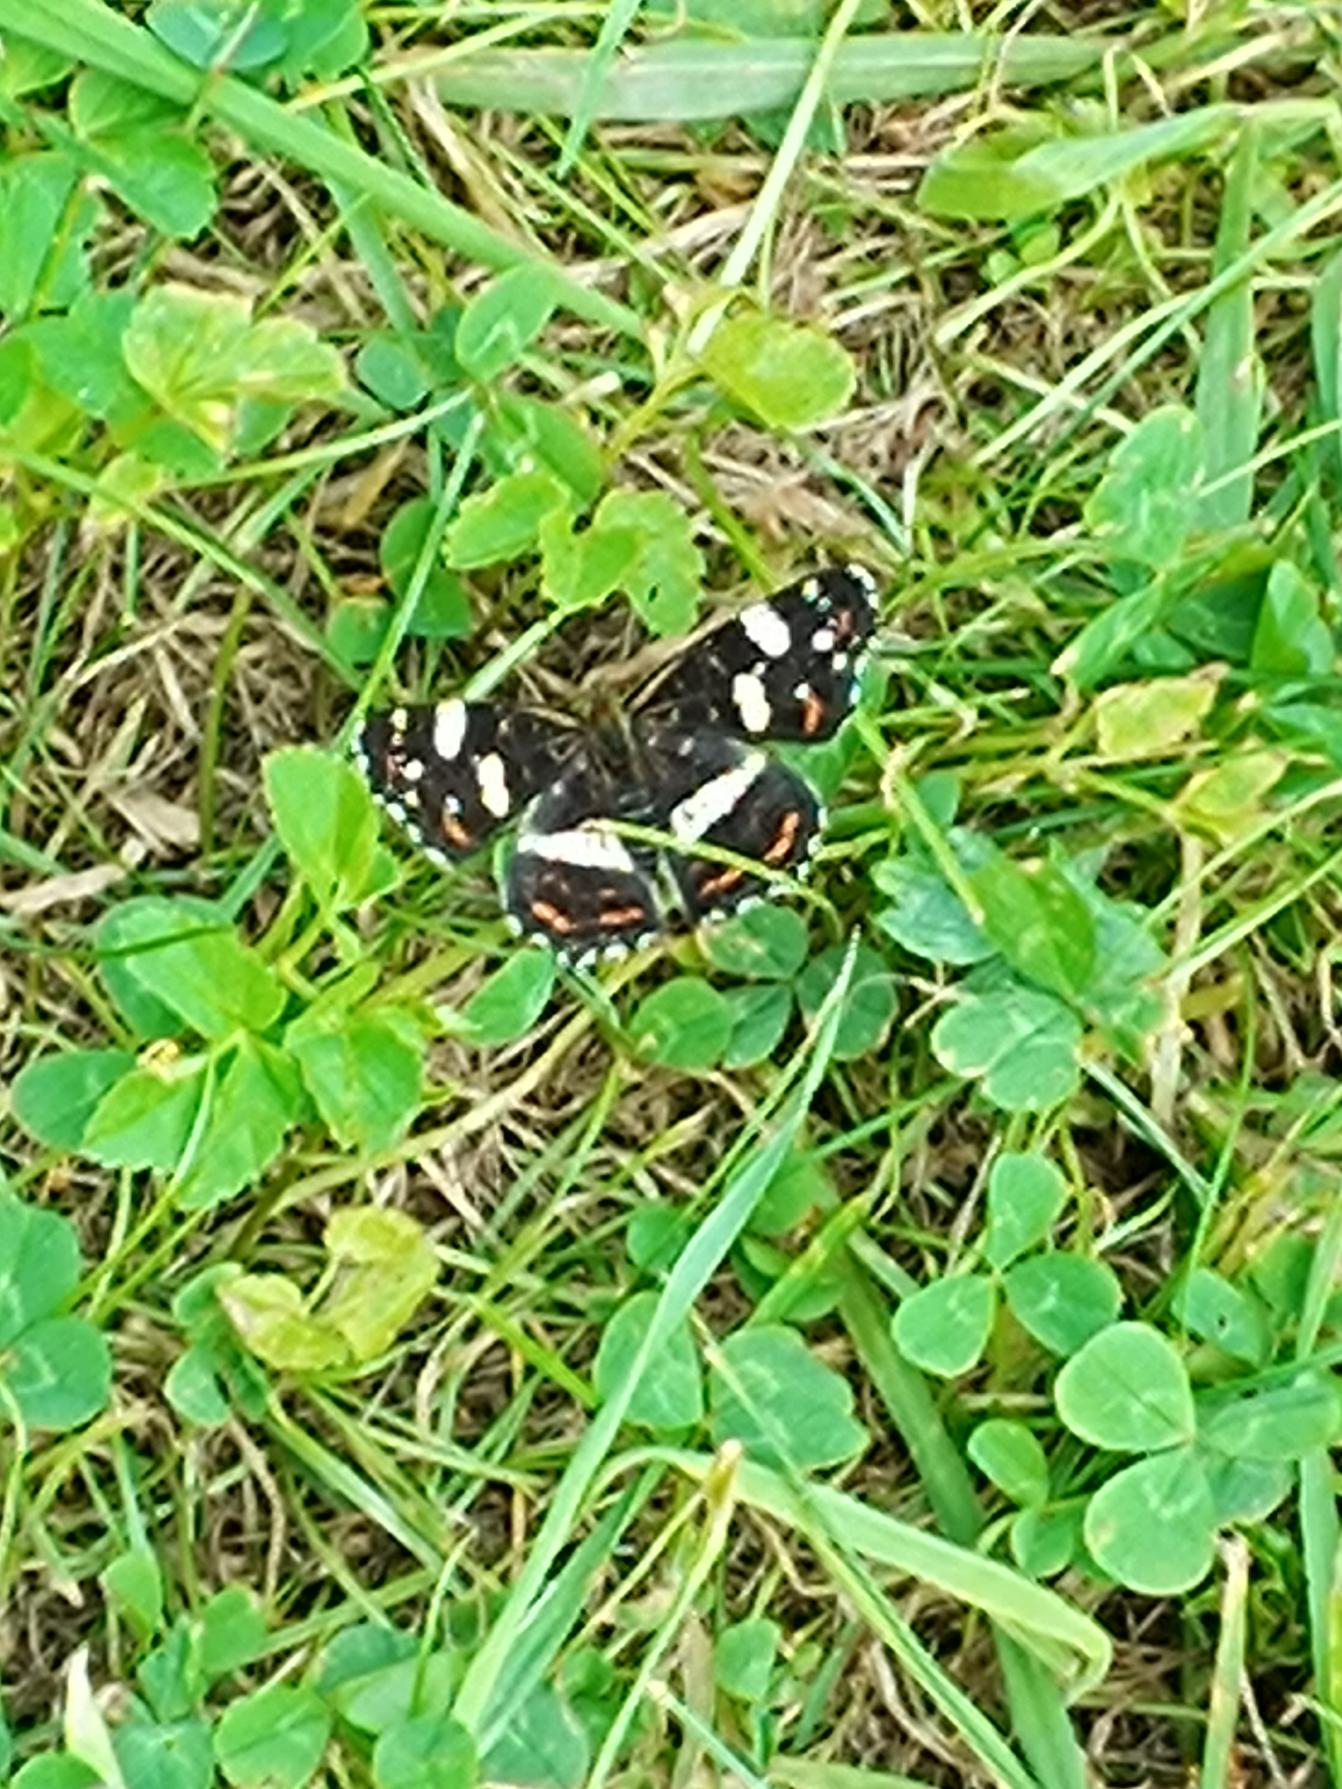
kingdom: Animalia
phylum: Arthropoda
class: Insecta
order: Lepidoptera
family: Nymphalidae
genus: Araschnia
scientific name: Araschnia levana
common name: Nældesommerfugl
